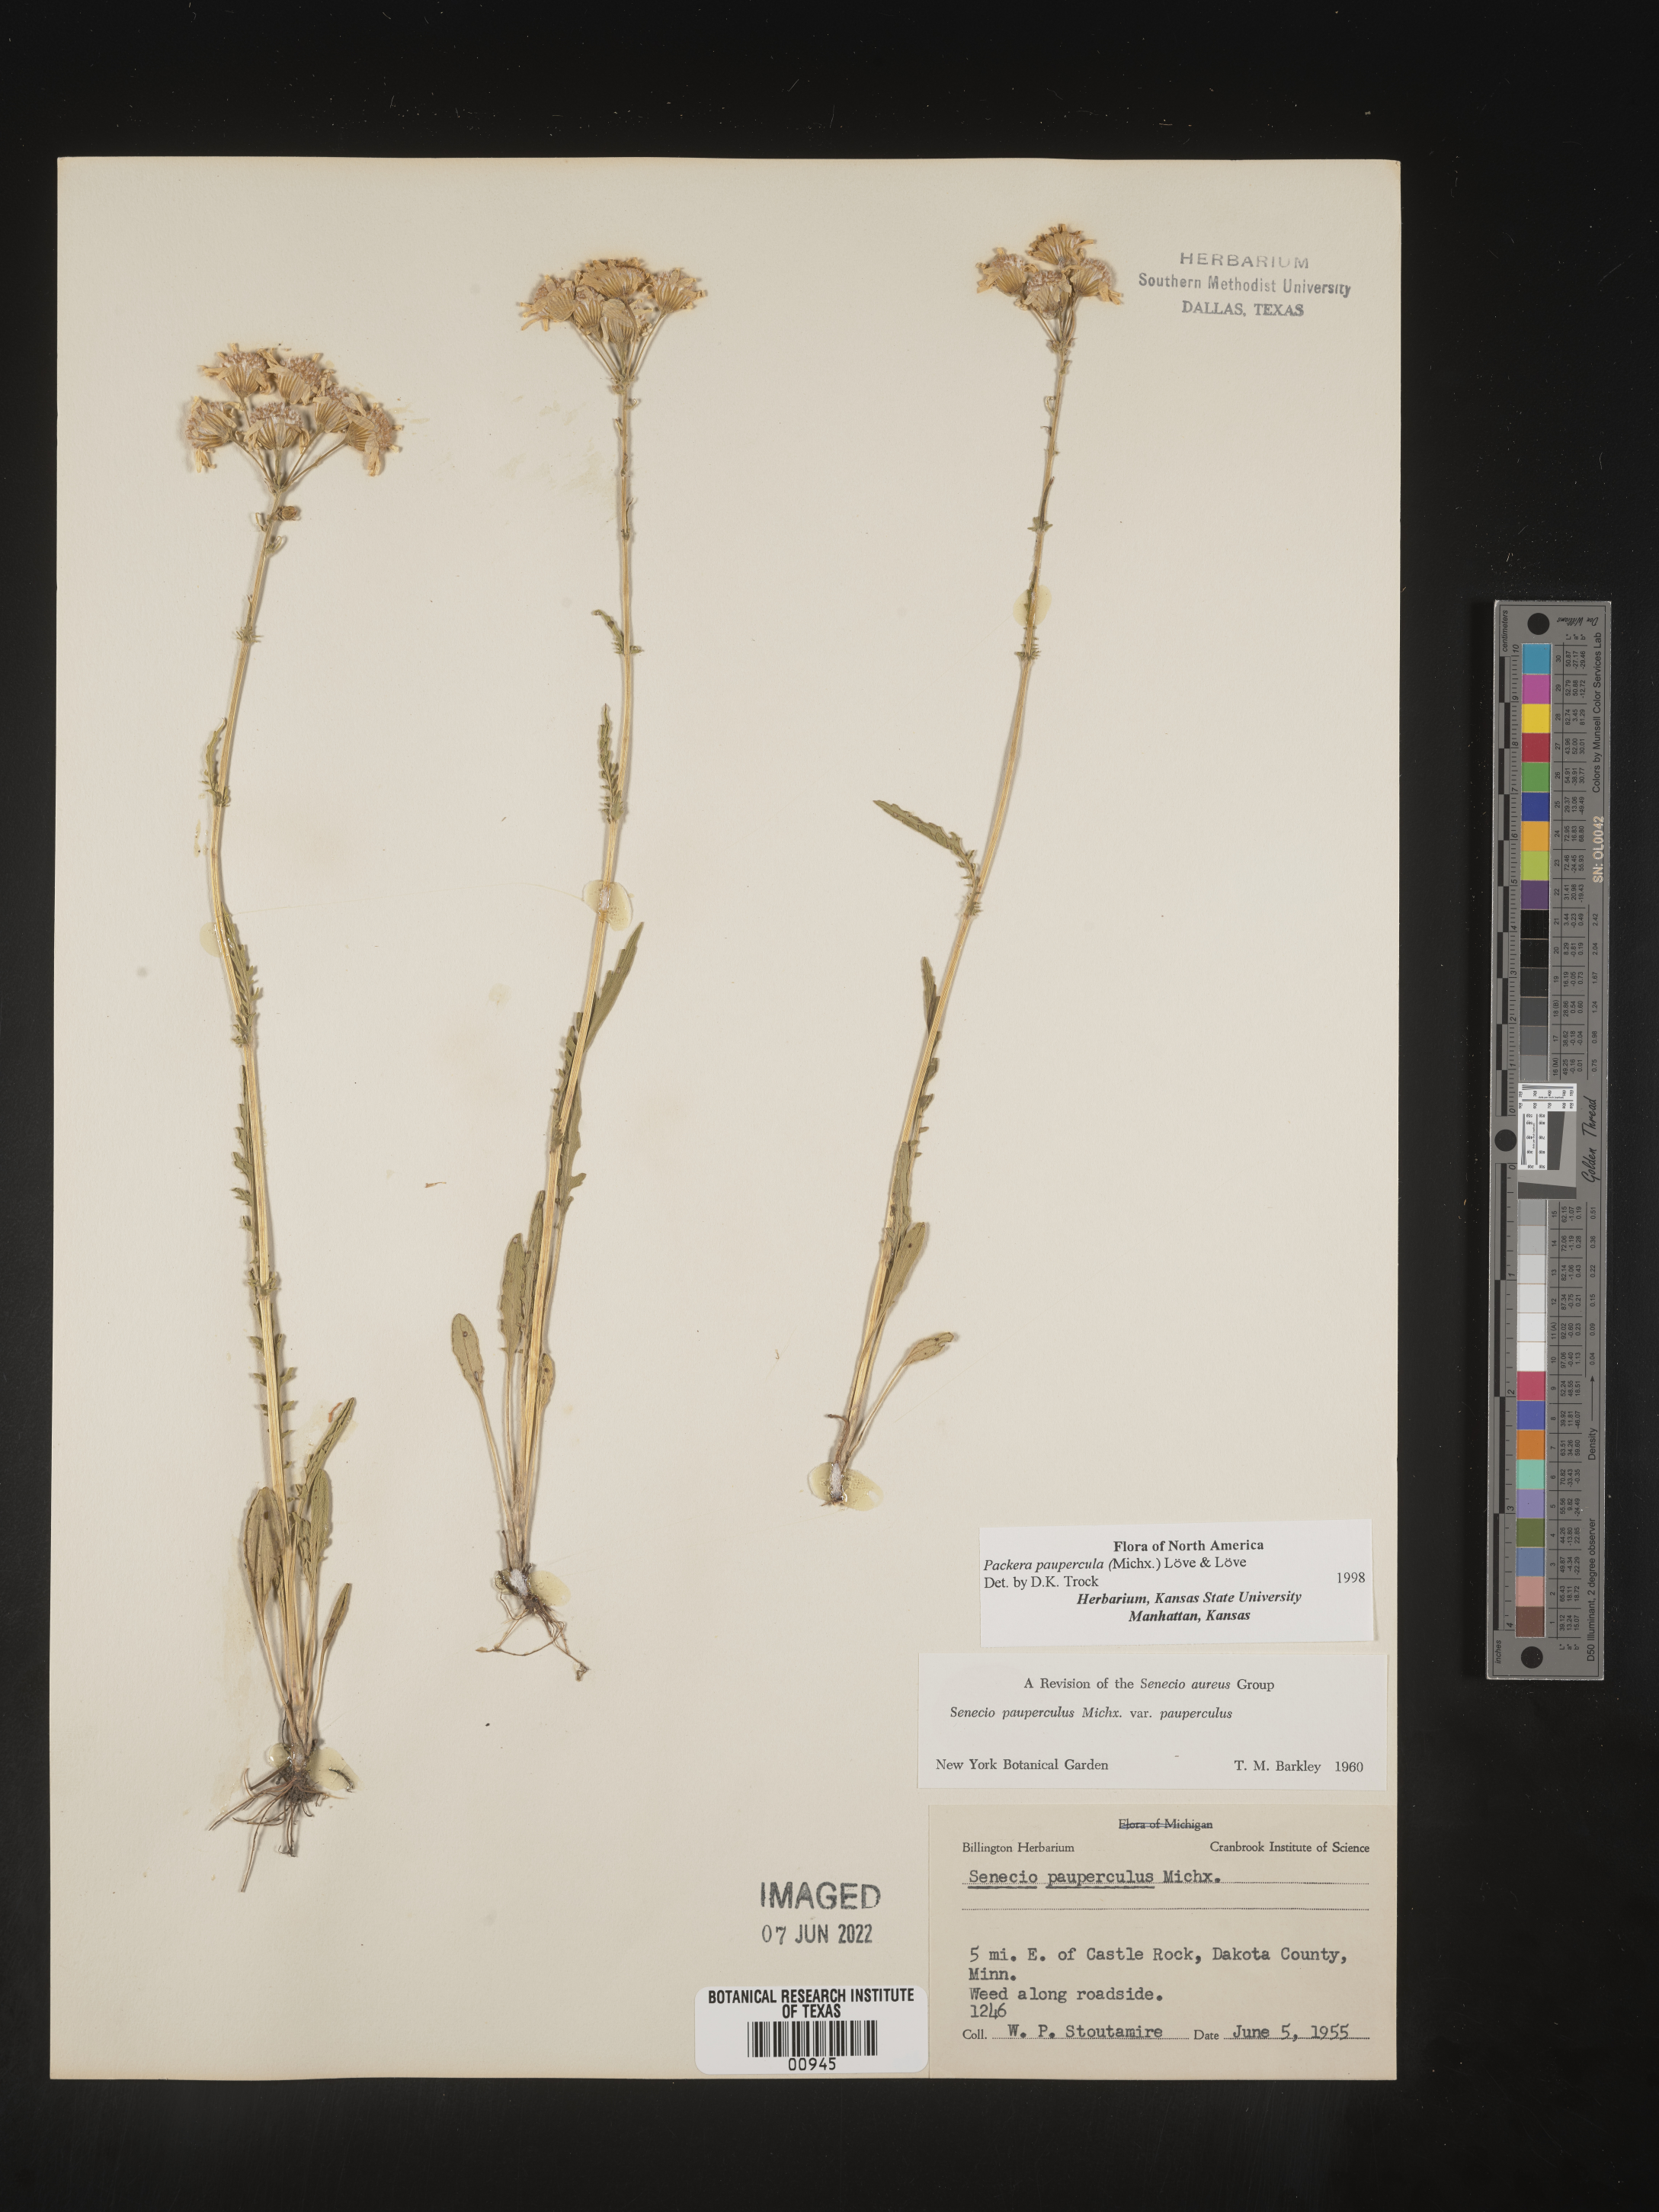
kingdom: Plantae
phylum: Tracheophyta
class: Magnoliopsida
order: Asterales
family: Asteraceae
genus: Packera
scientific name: Packera paupercula
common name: Balsam groundsel
